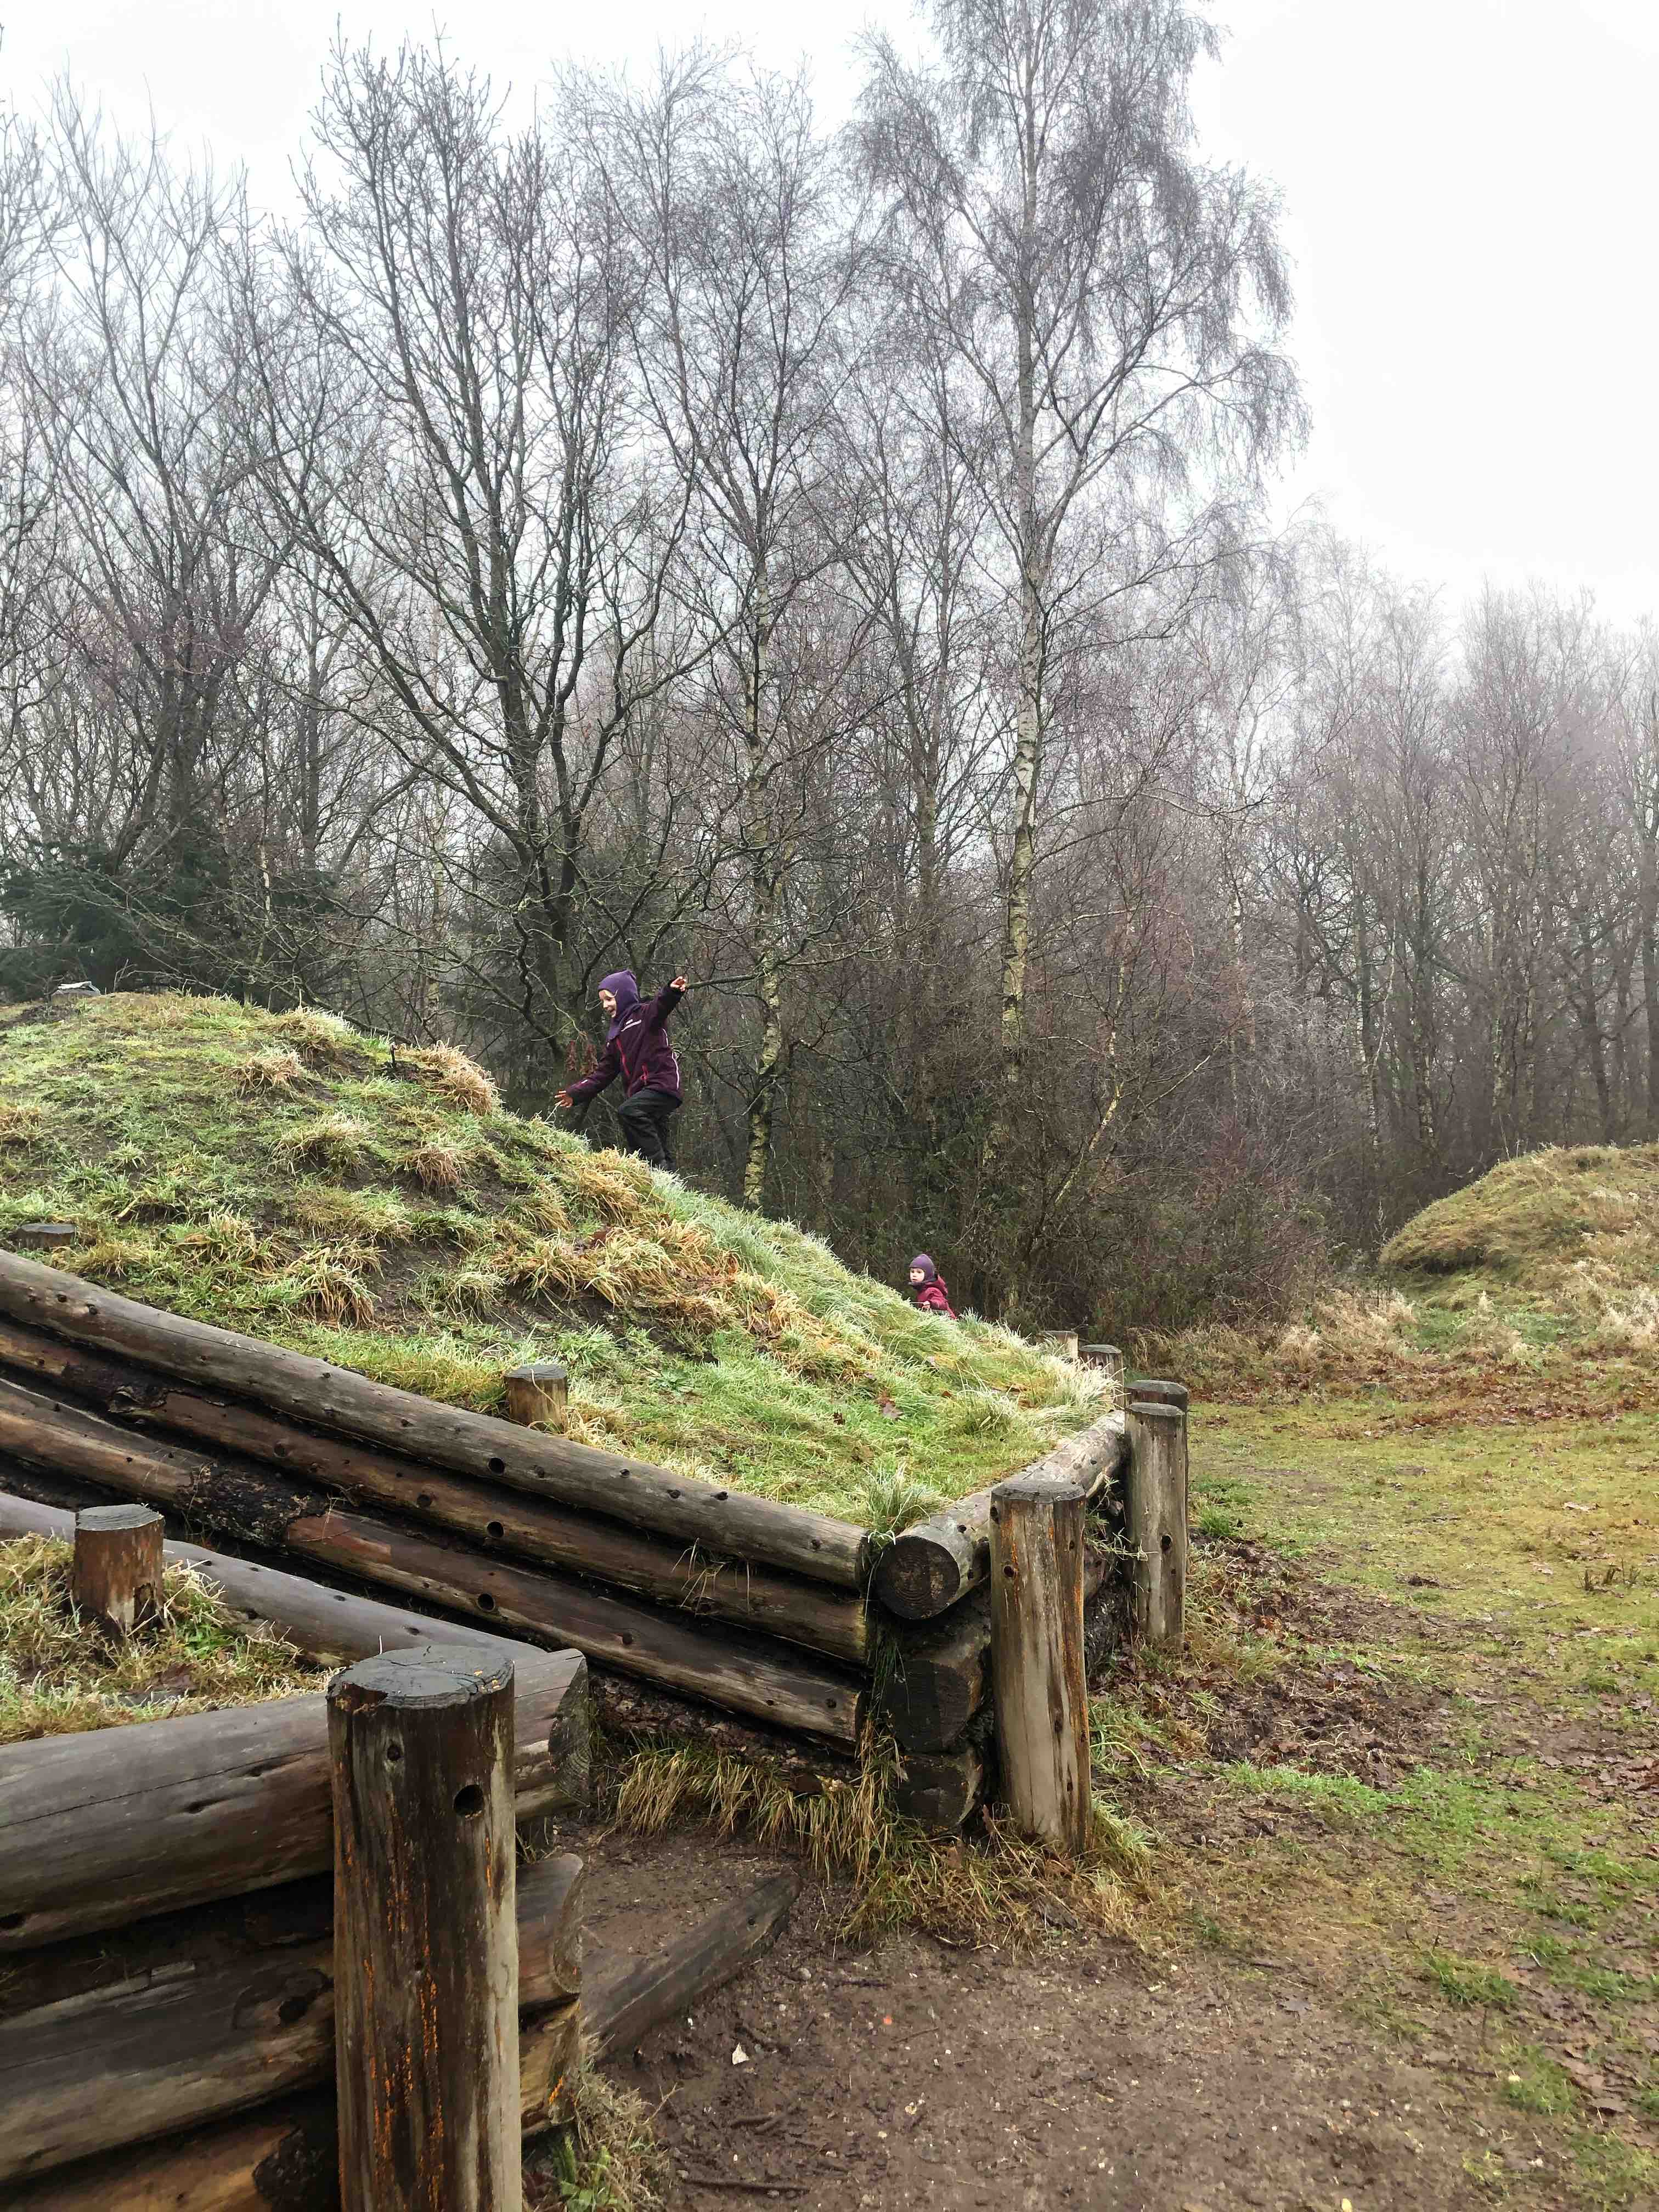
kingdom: Fungi
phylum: Basidiomycota
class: Dacrymycetes
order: Dacrymycetales
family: Dacrymycetaceae
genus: Dacrymyces
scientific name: Dacrymyces stillatus
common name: almindelig tåresvamp
